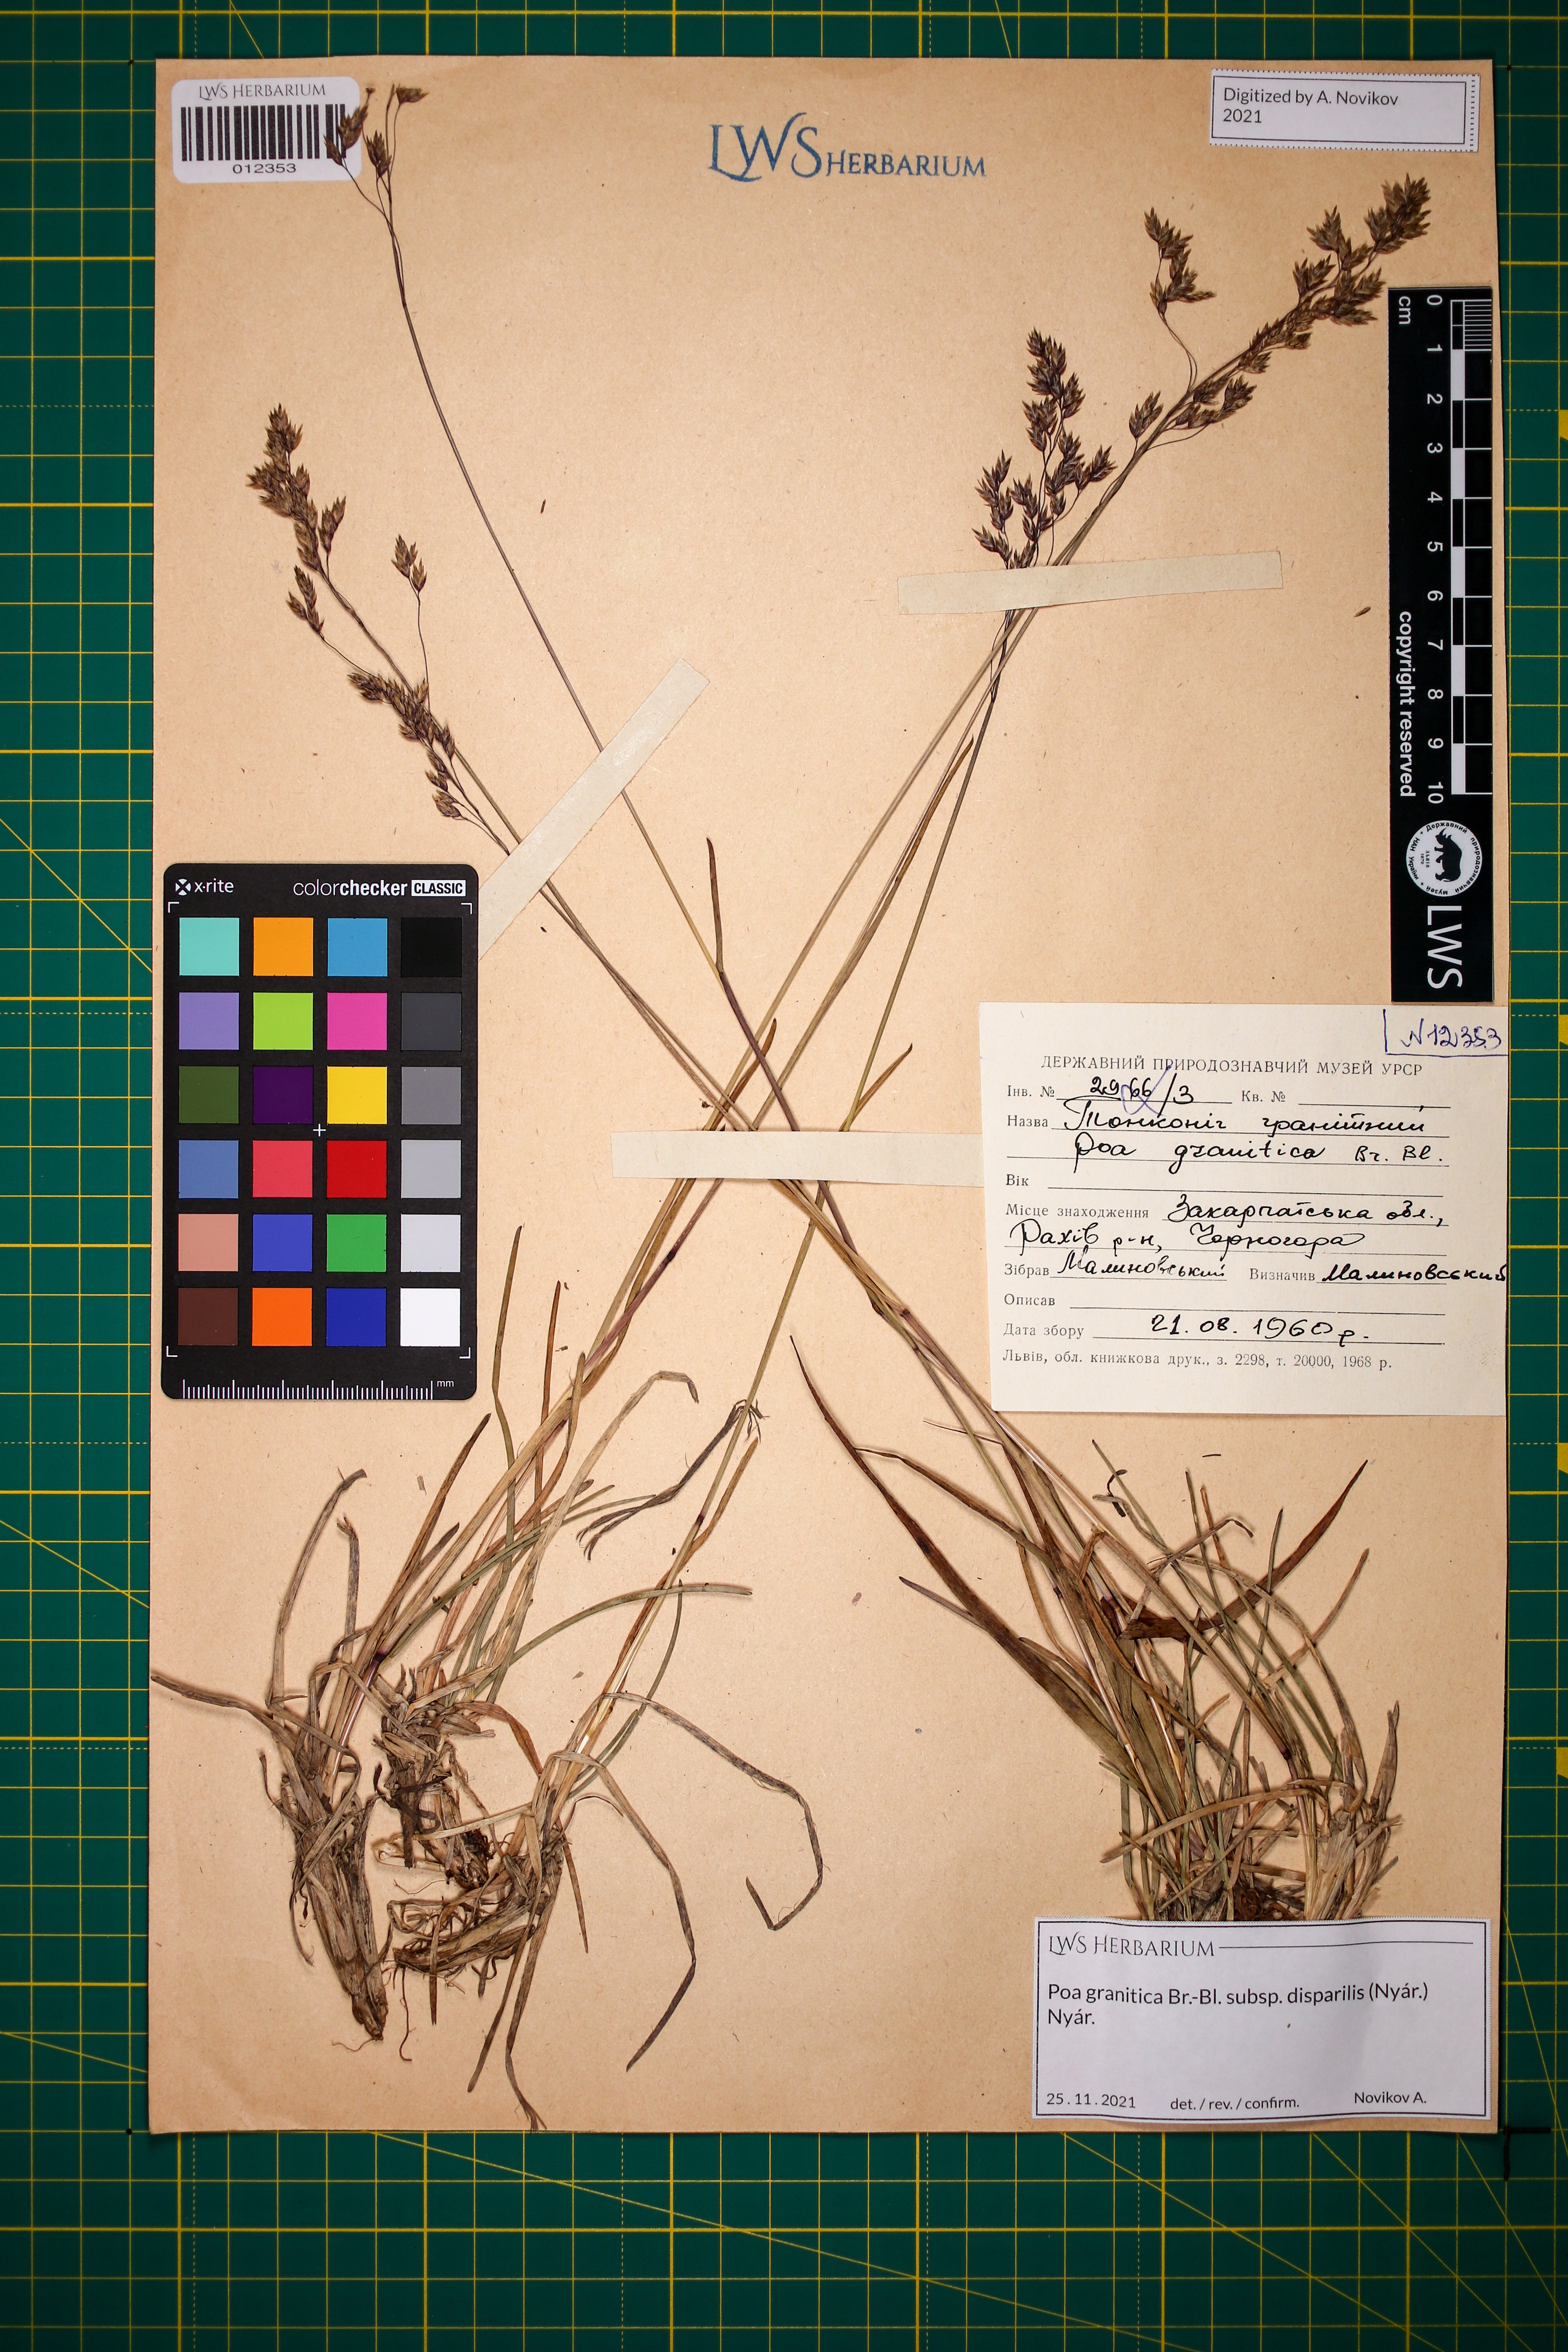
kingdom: Plantae
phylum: Tracheophyta
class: Liliopsida
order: Poales
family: Poaceae
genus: Poa
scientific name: Poa granitica
